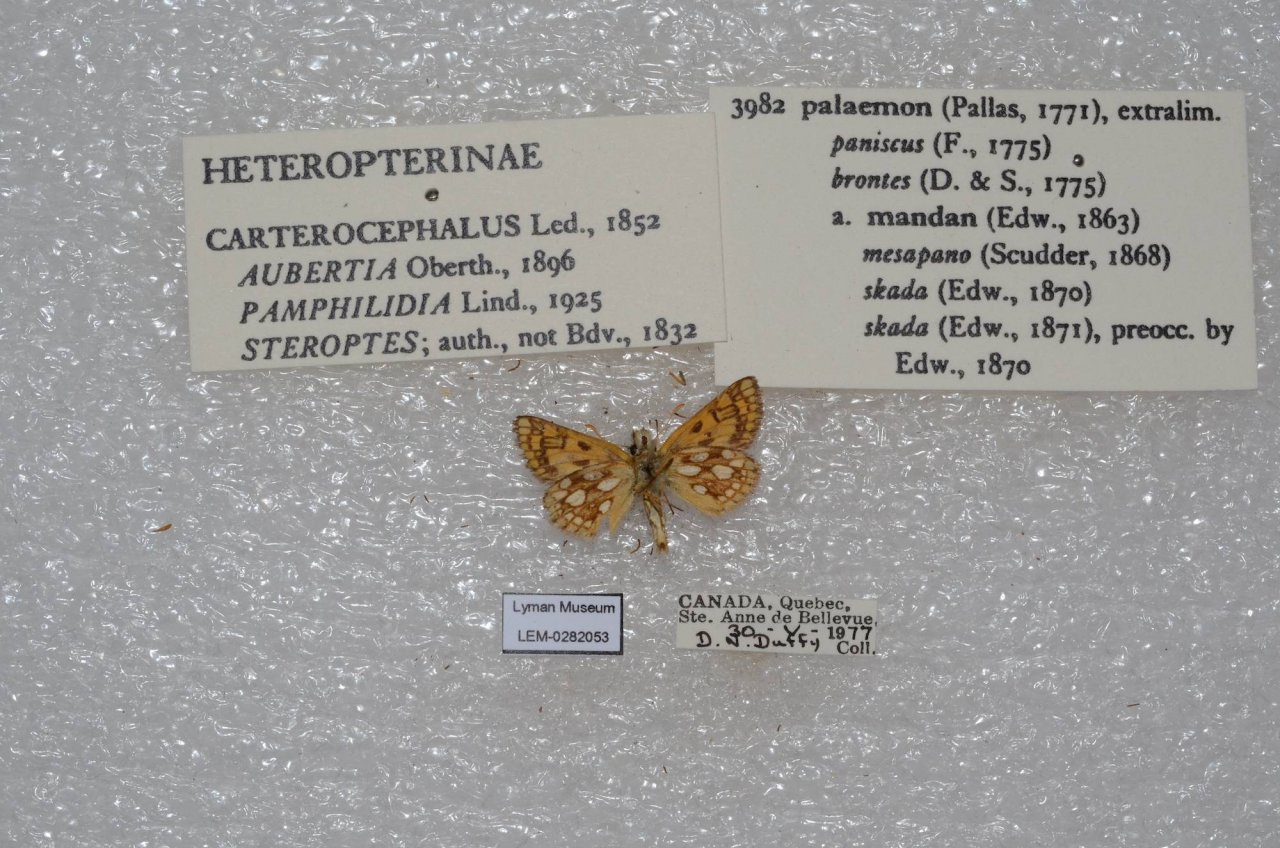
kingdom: Animalia
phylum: Arthropoda
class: Insecta
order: Lepidoptera
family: Hesperiidae
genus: Carterocephalus
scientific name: Carterocephalus palaemon
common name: Chequered Skipper
